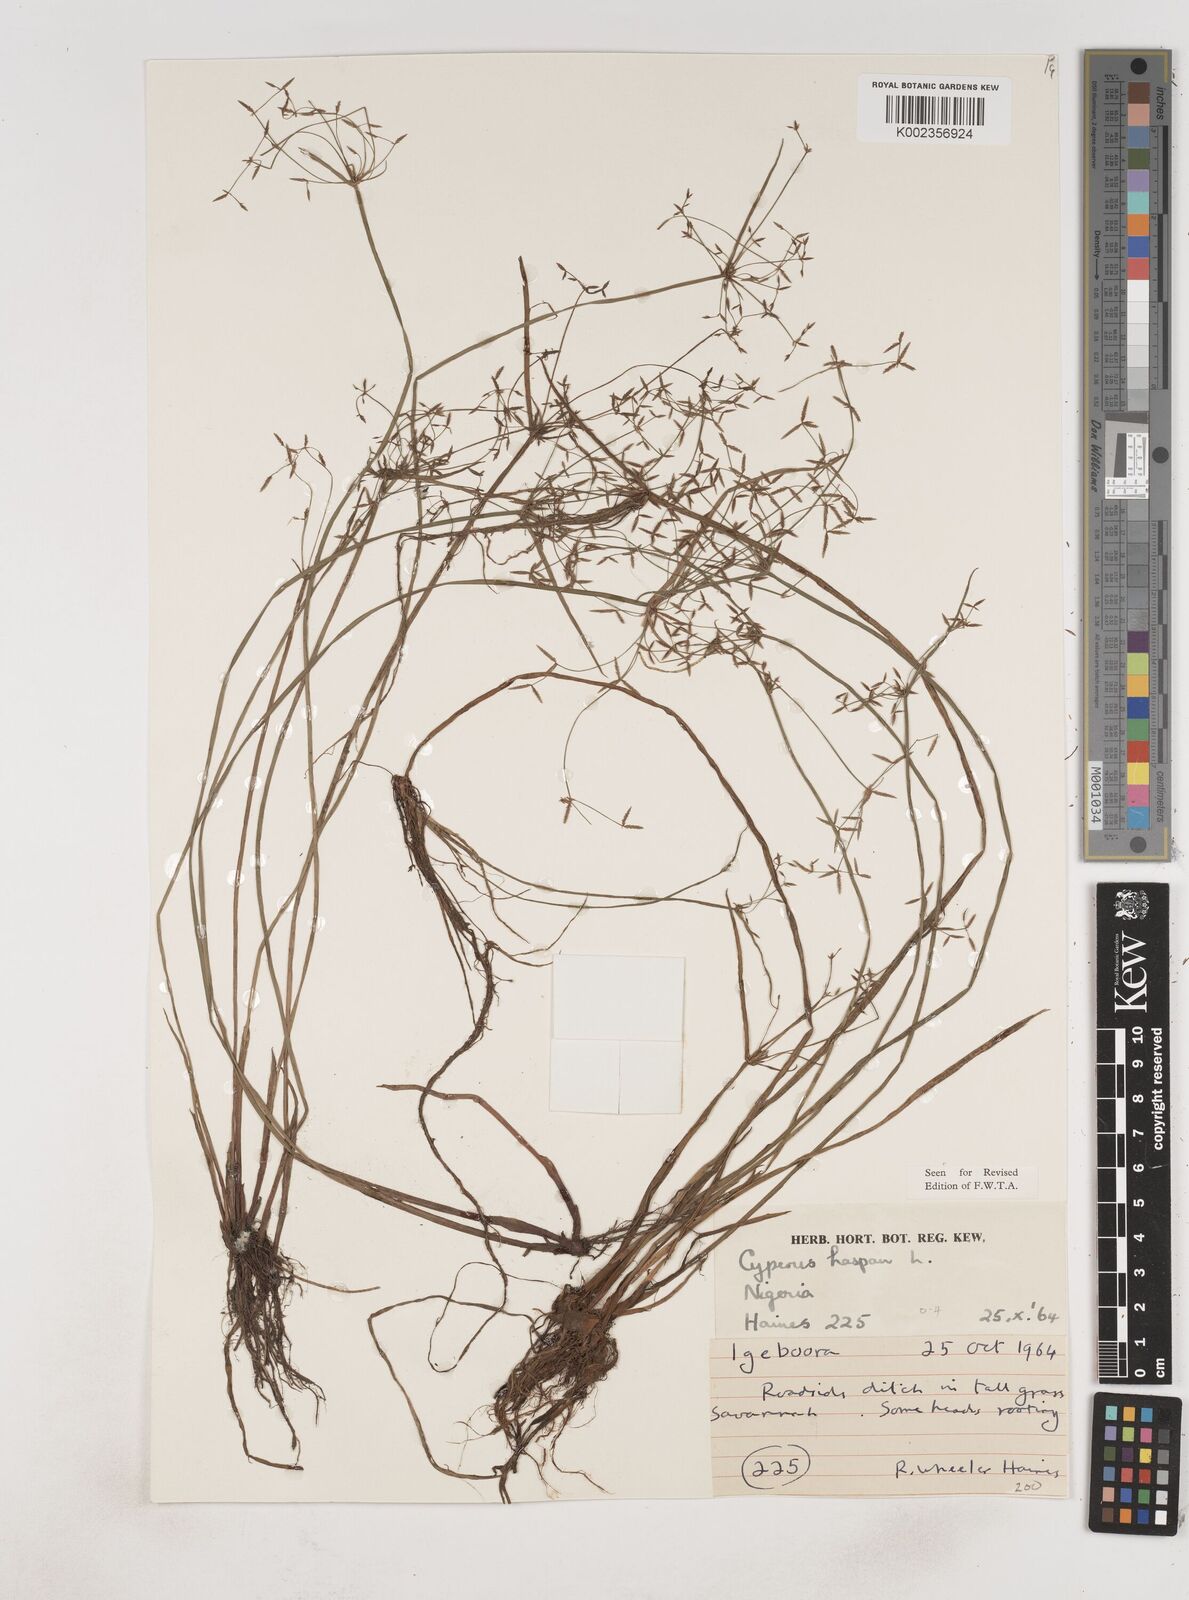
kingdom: Plantae
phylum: Tracheophyta
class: Liliopsida
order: Poales
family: Cyperaceae
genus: Cyperus
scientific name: Cyperus haspan
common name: Haspan flatsedge
